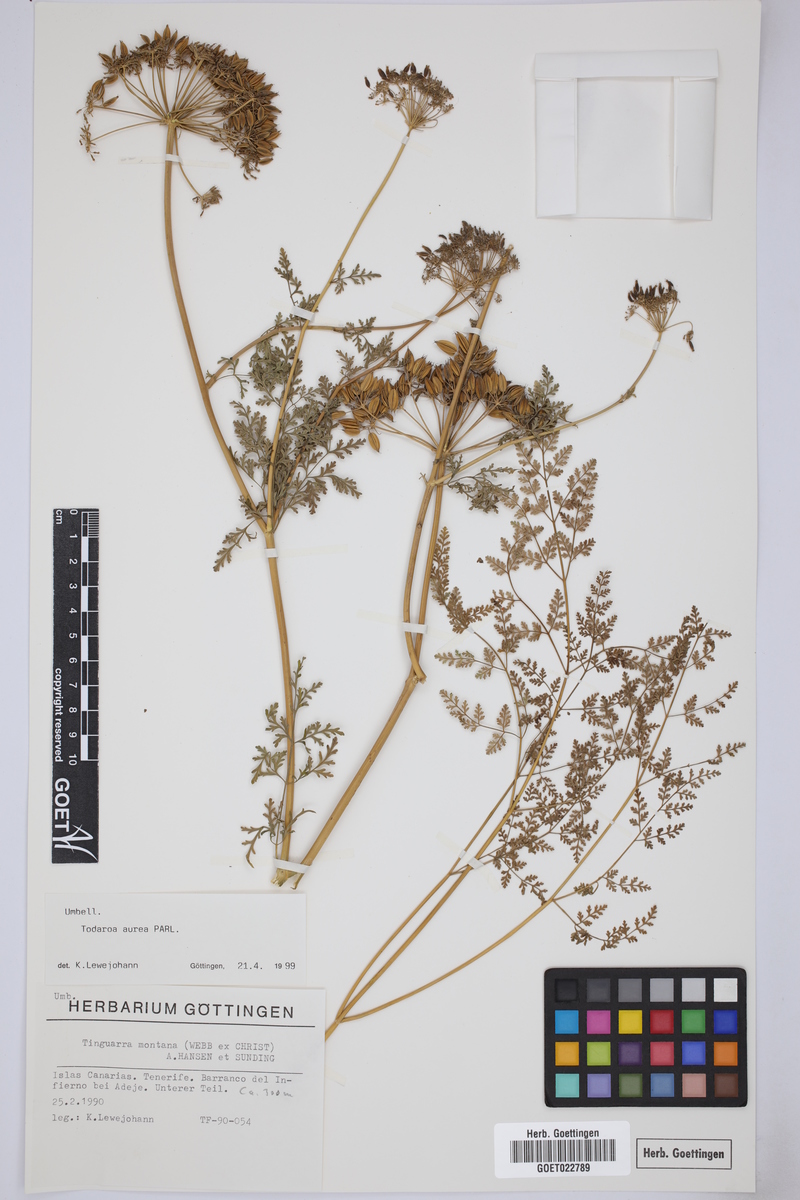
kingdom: Plantae
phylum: Tracheophyta
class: Magnoliopsida
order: Apiales
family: Apiaceae
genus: Todaroa
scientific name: Todaroa aurea
